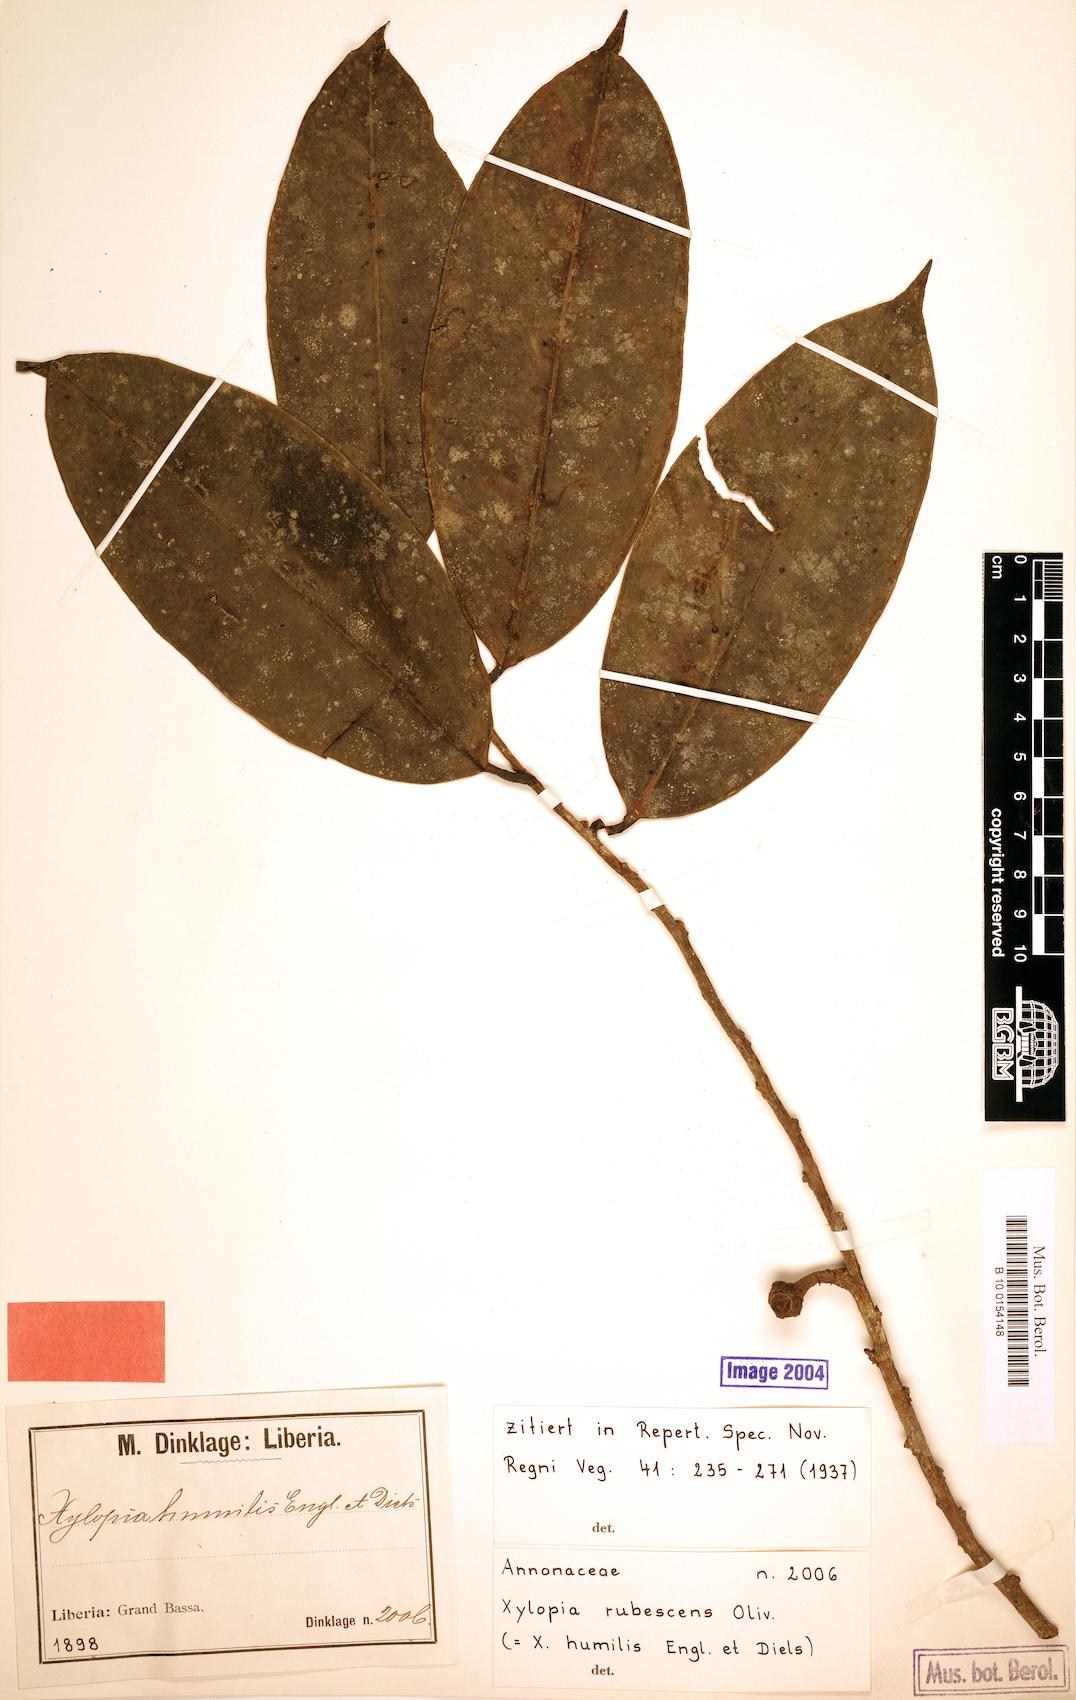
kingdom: Plantae
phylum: Tracheophyta
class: Magnoliopsida
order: Magnoliales
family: Annonaceae
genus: Xylopia
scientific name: Xylopia rubescens
